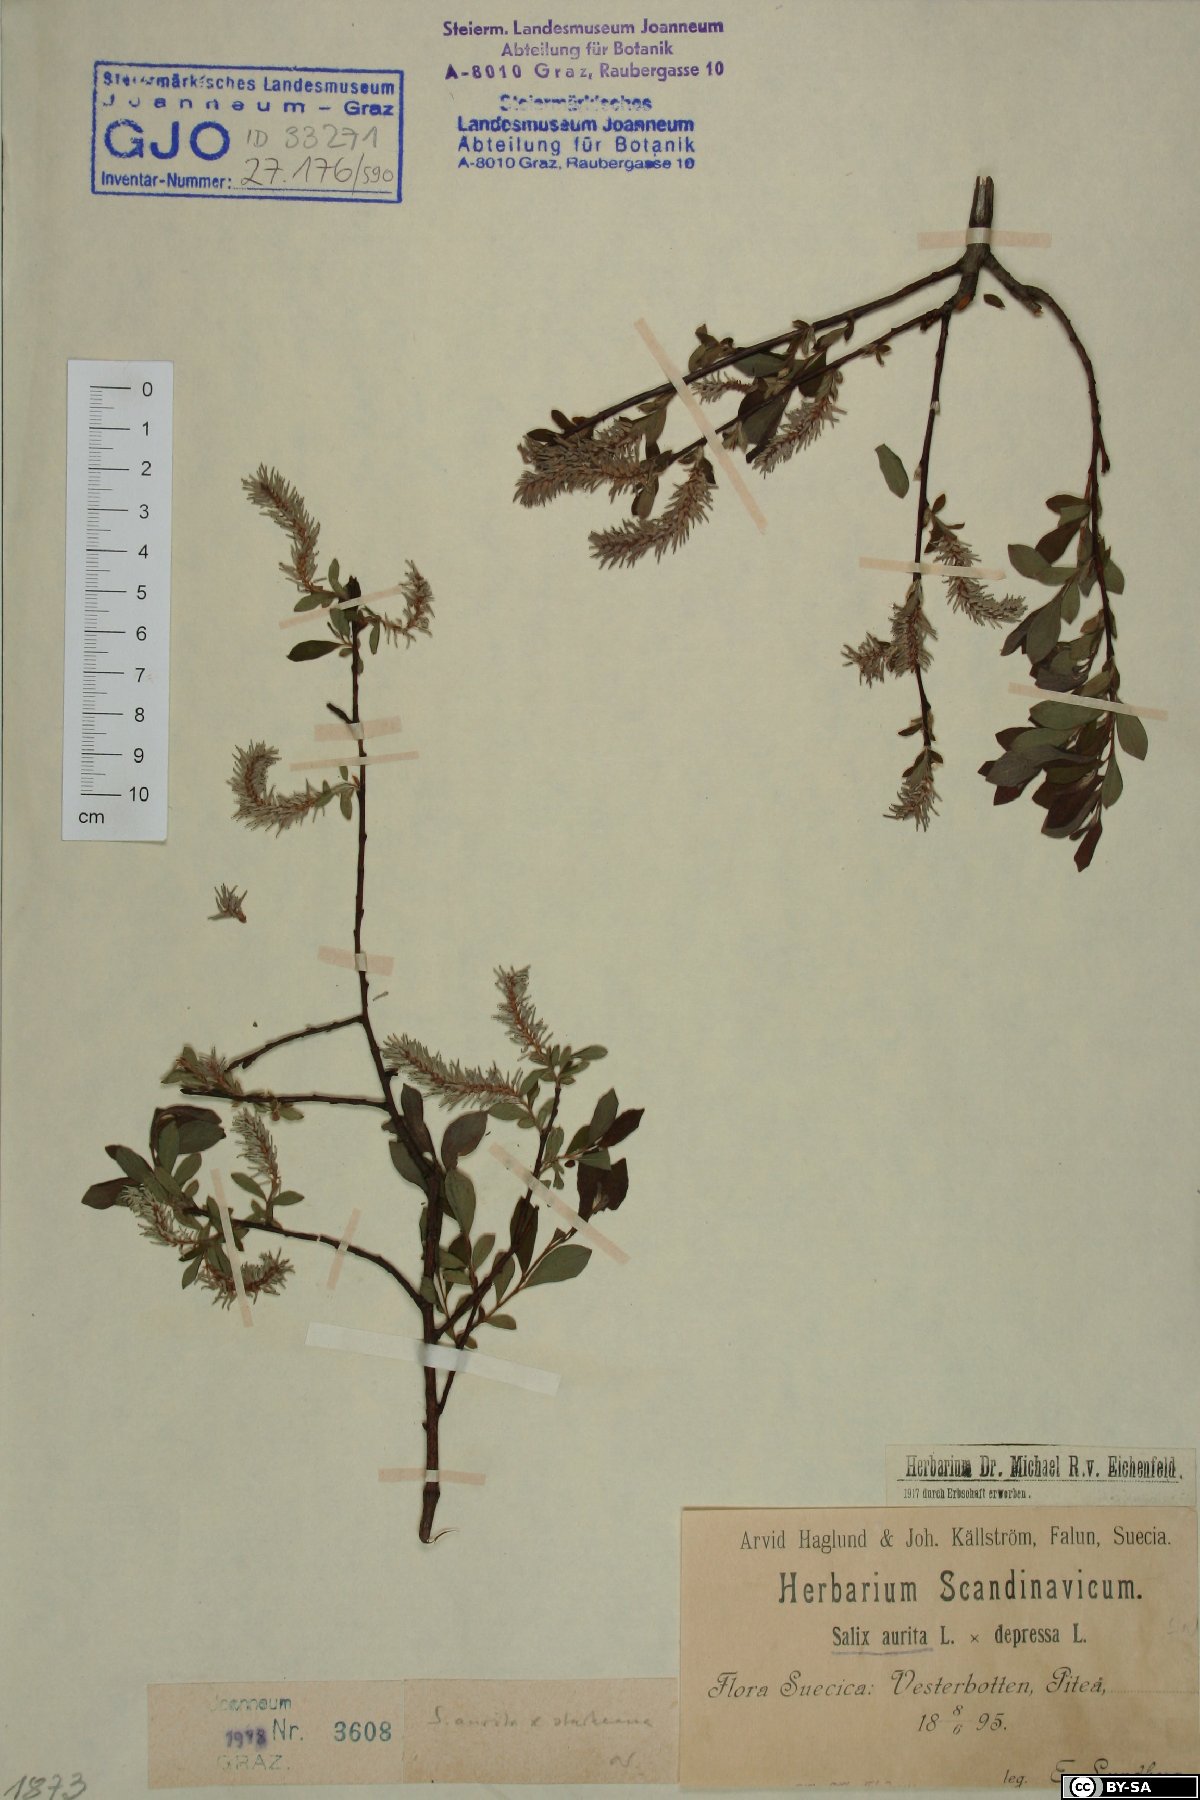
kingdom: Plantae
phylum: Tracheophyta
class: Magnoliopsida
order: Malpighiales
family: Salicaceae
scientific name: Salicaceae
